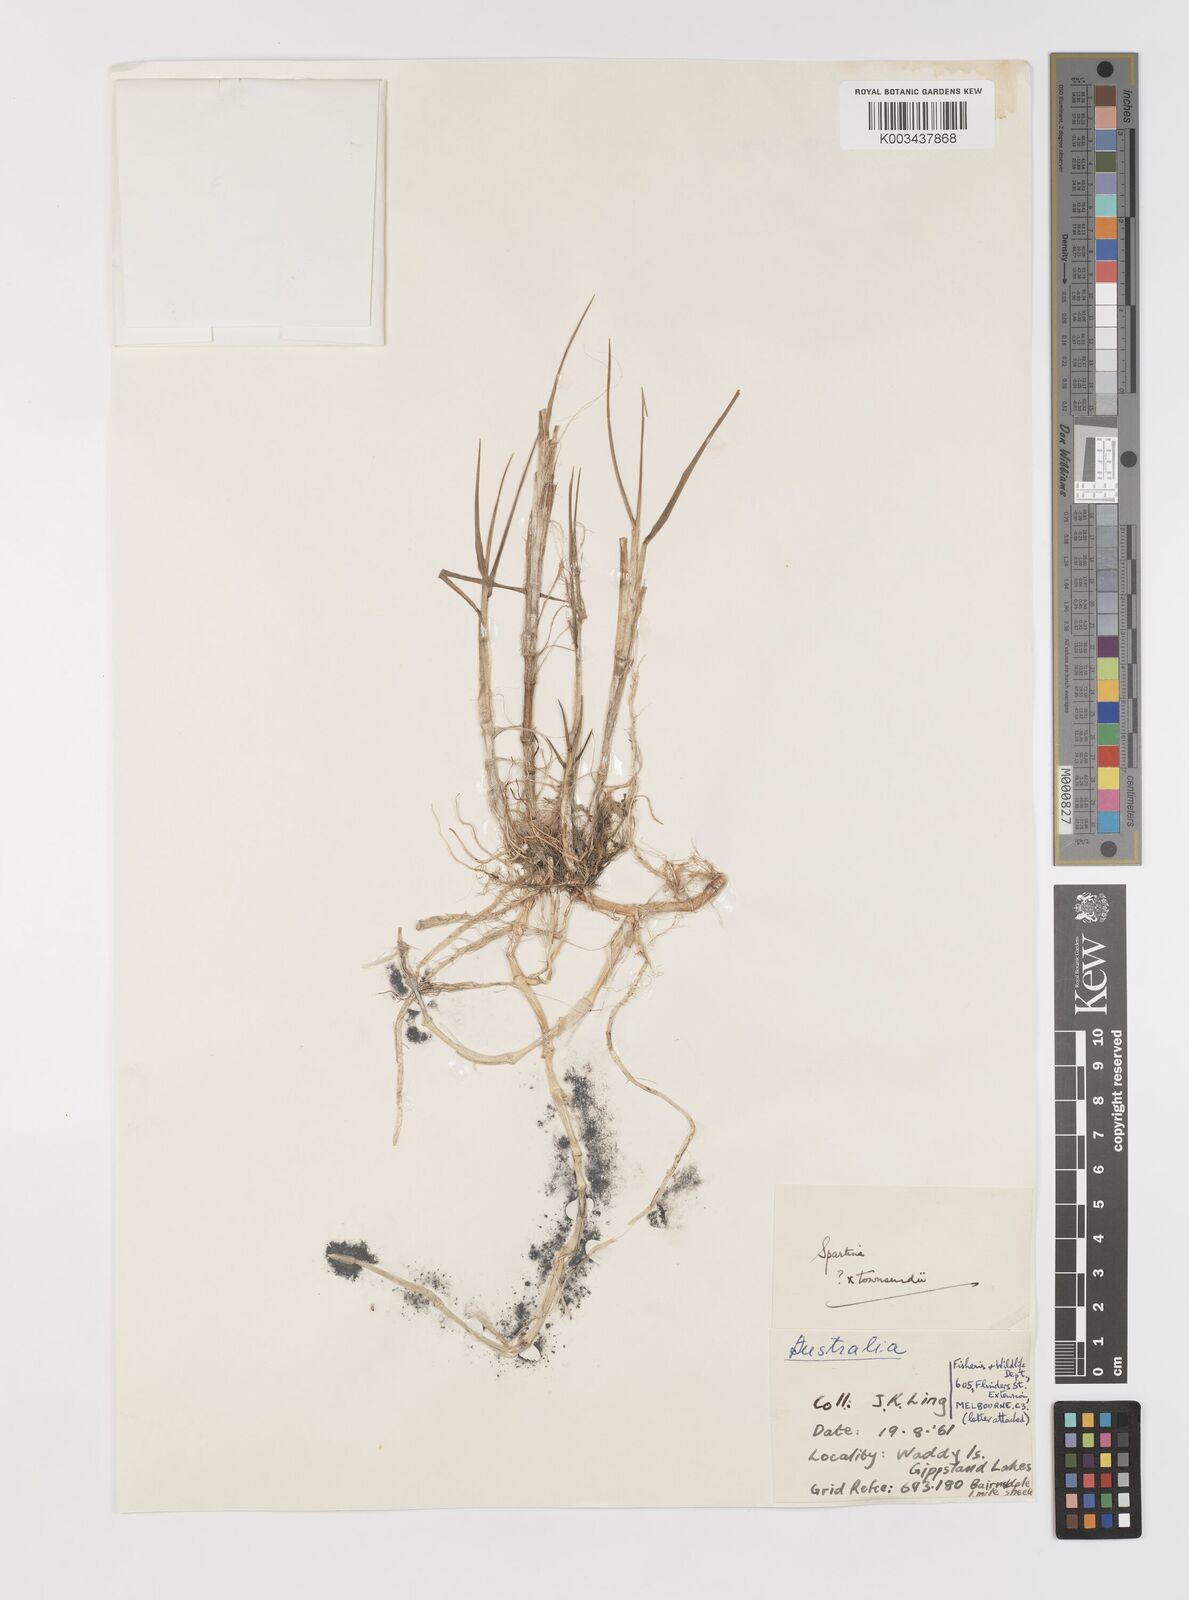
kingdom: Plantae
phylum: Tracheophyta
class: Liliopsida
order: Poales
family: Poaceae
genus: Sporobolus
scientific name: Sporobolus townsendii
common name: Townsend's cordgrass
